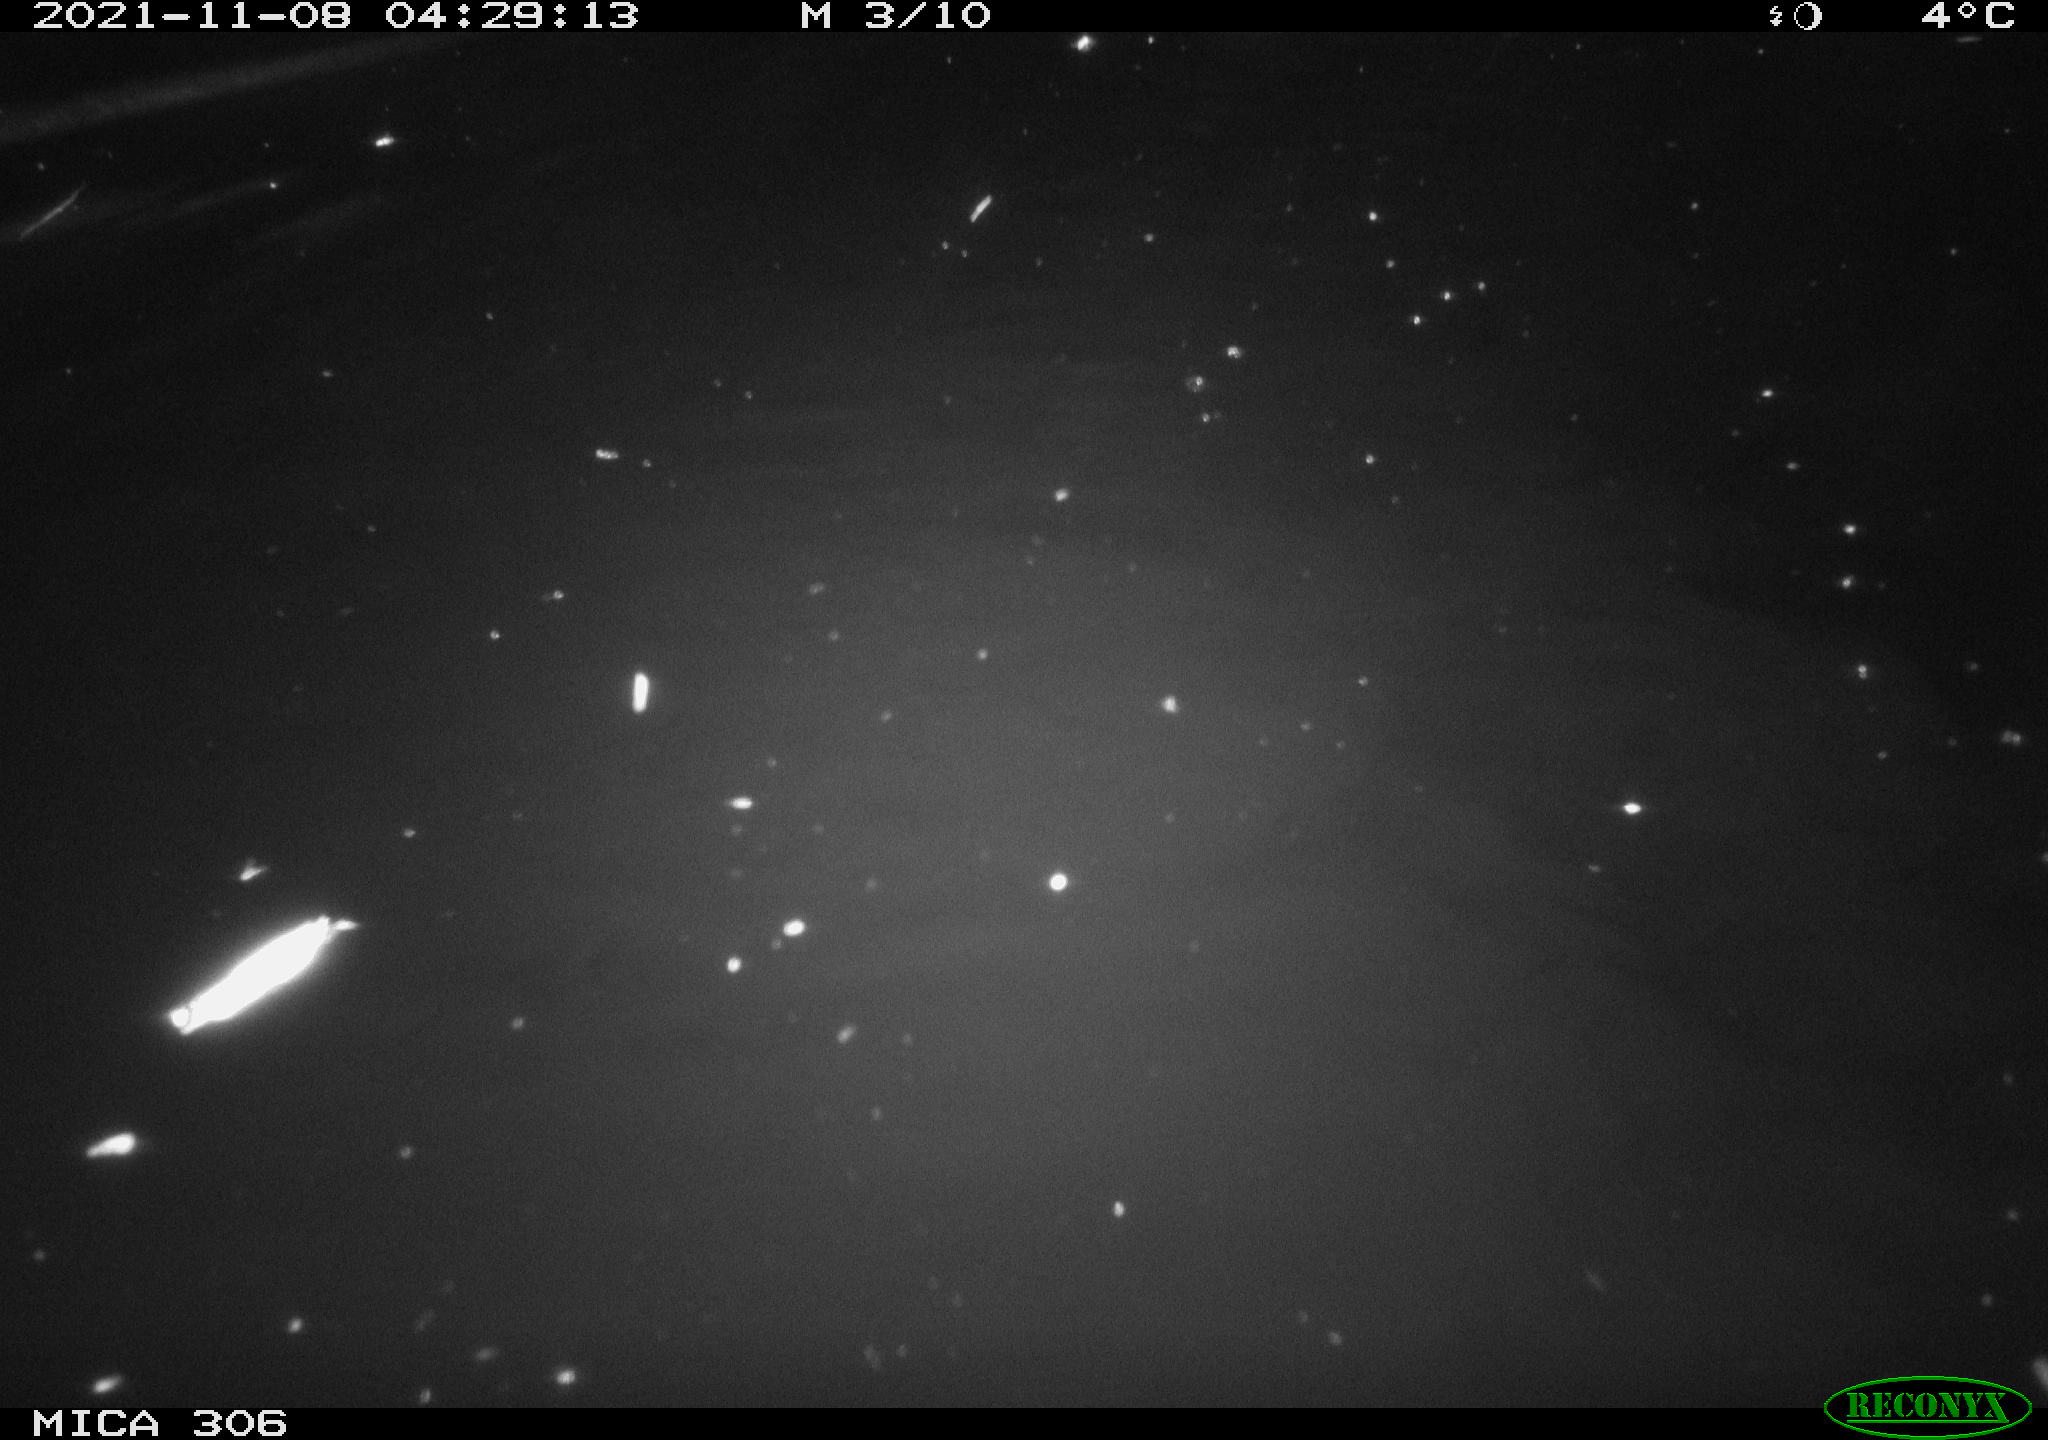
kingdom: Animalia
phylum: Chordata
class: Mammalia
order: Rodentia
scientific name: Rodentia
